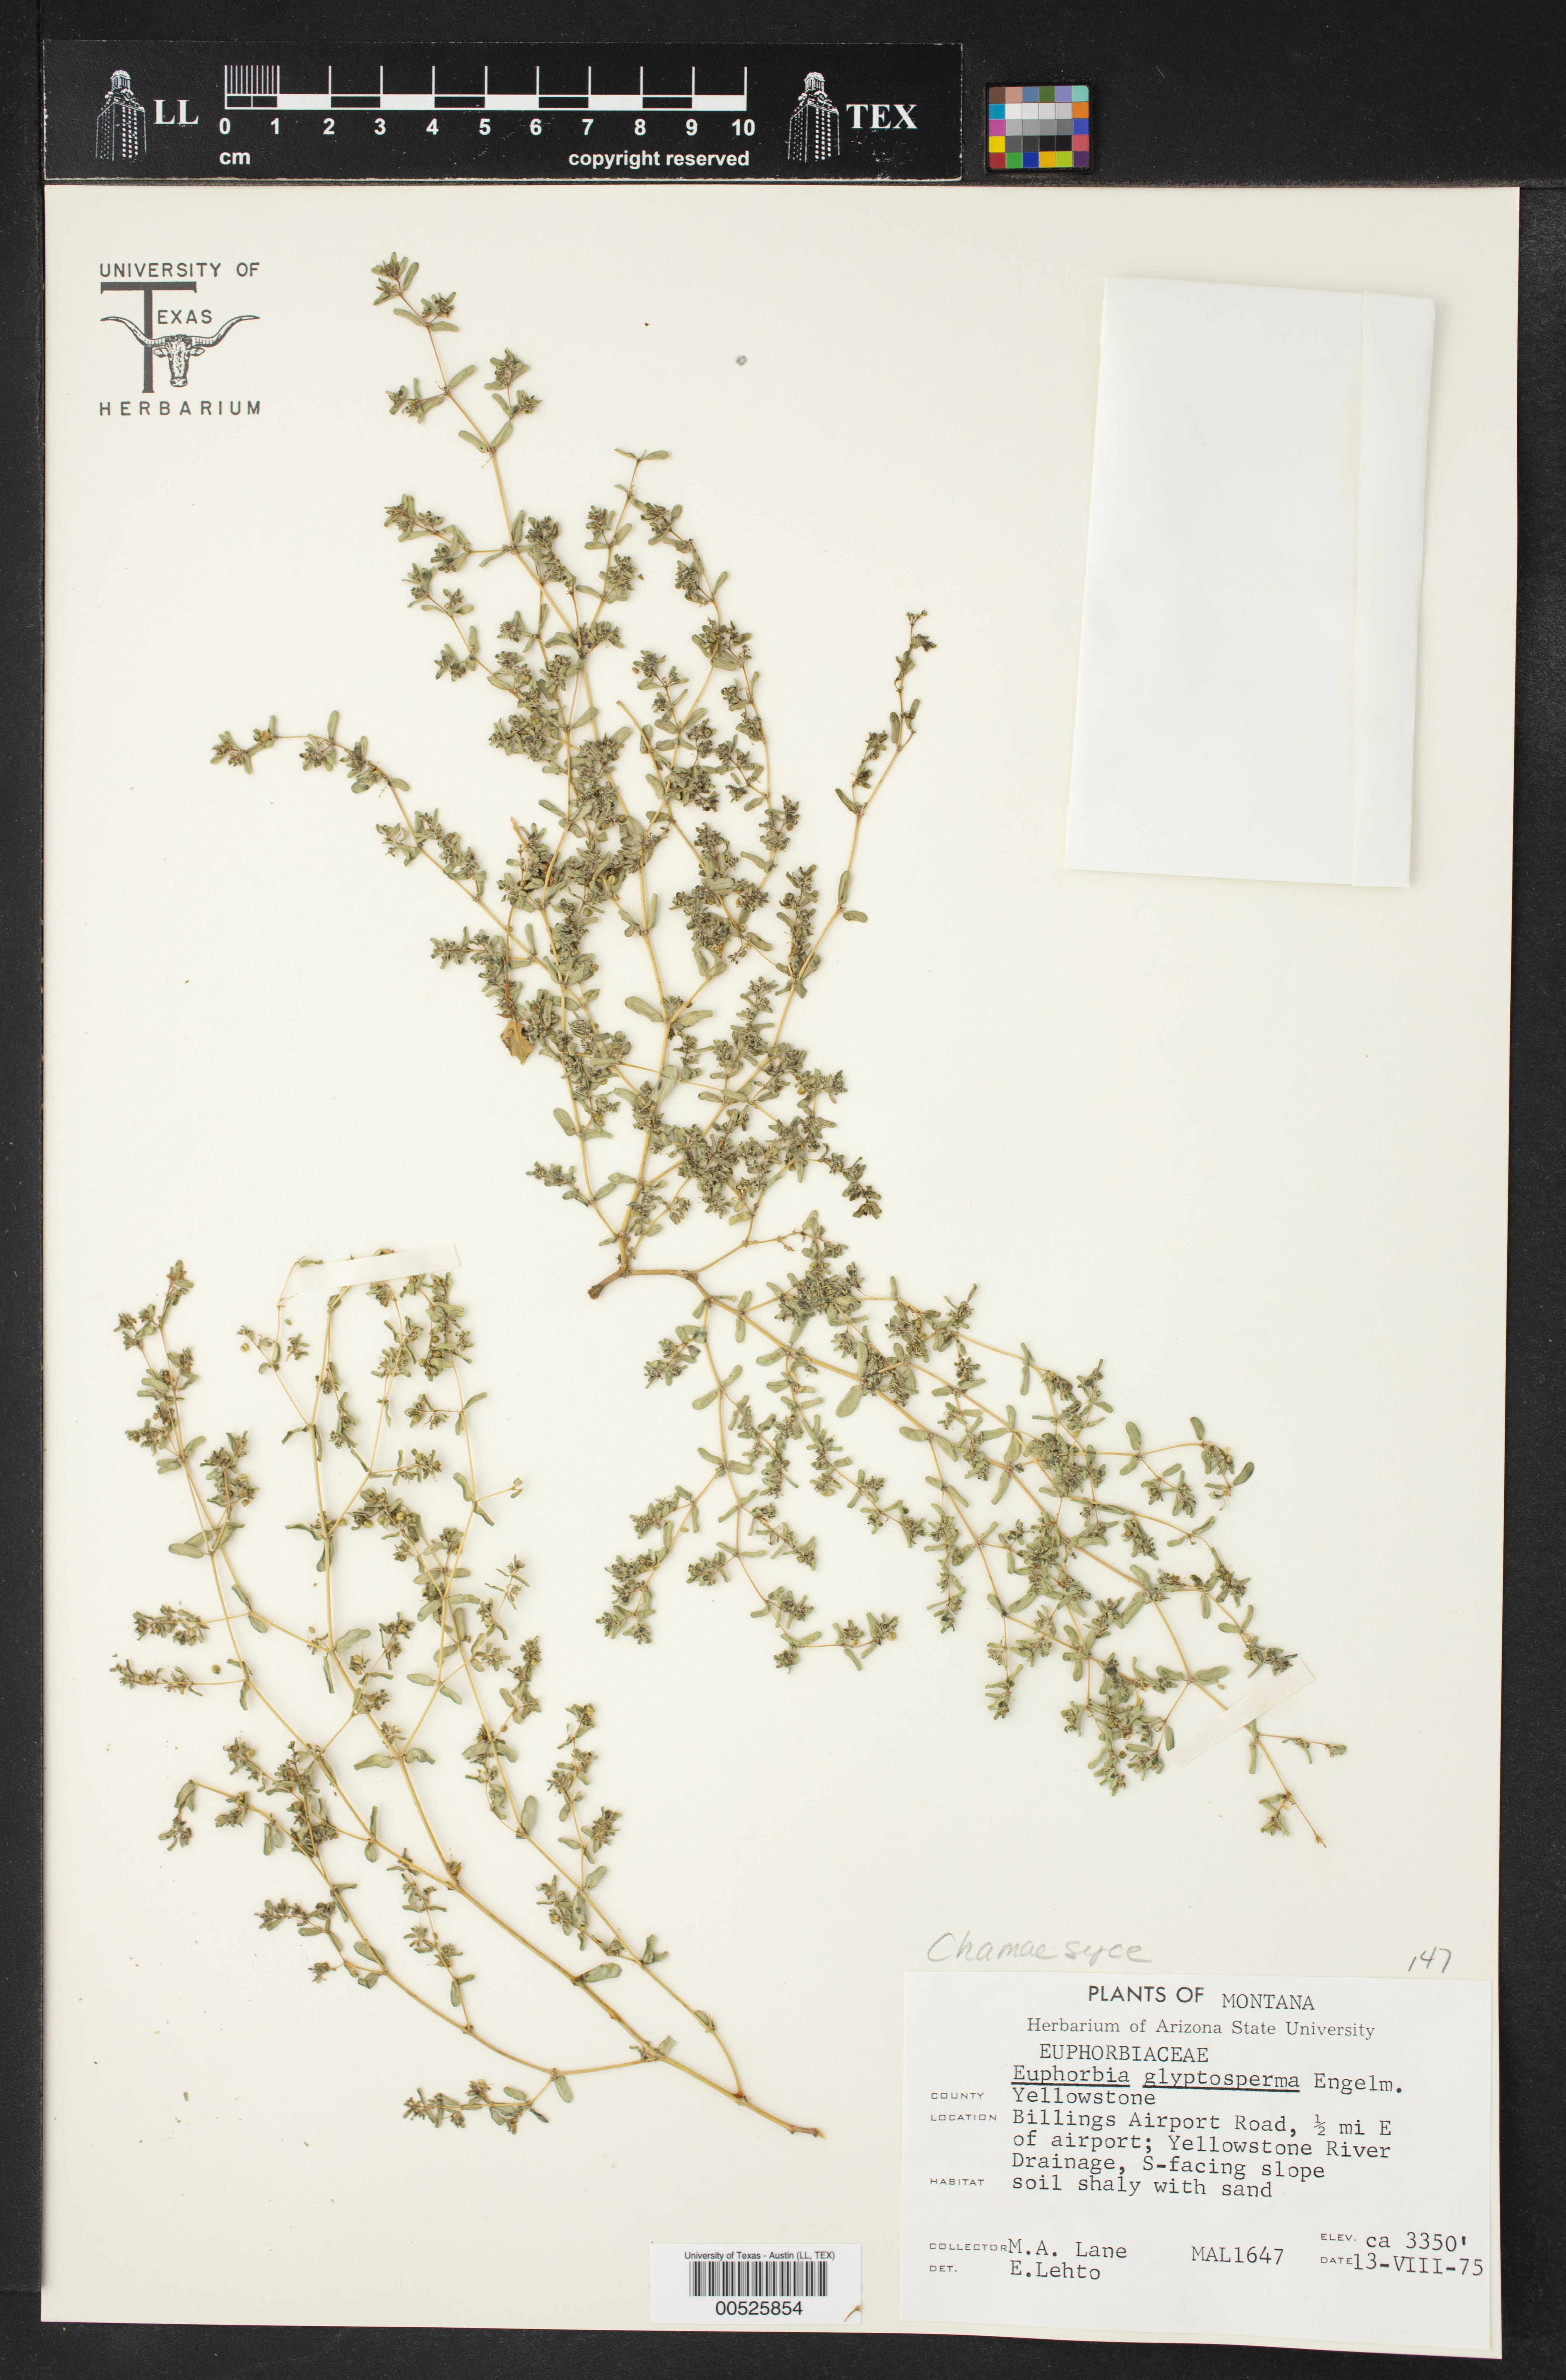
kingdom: Plantae
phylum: Tracheophyta
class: Magnoliopsida
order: Malpighiales
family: Euphorbiaceae
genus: Euphorbia
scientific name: Euphorbia glyptosperma
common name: Corrugate-seeded spurge
